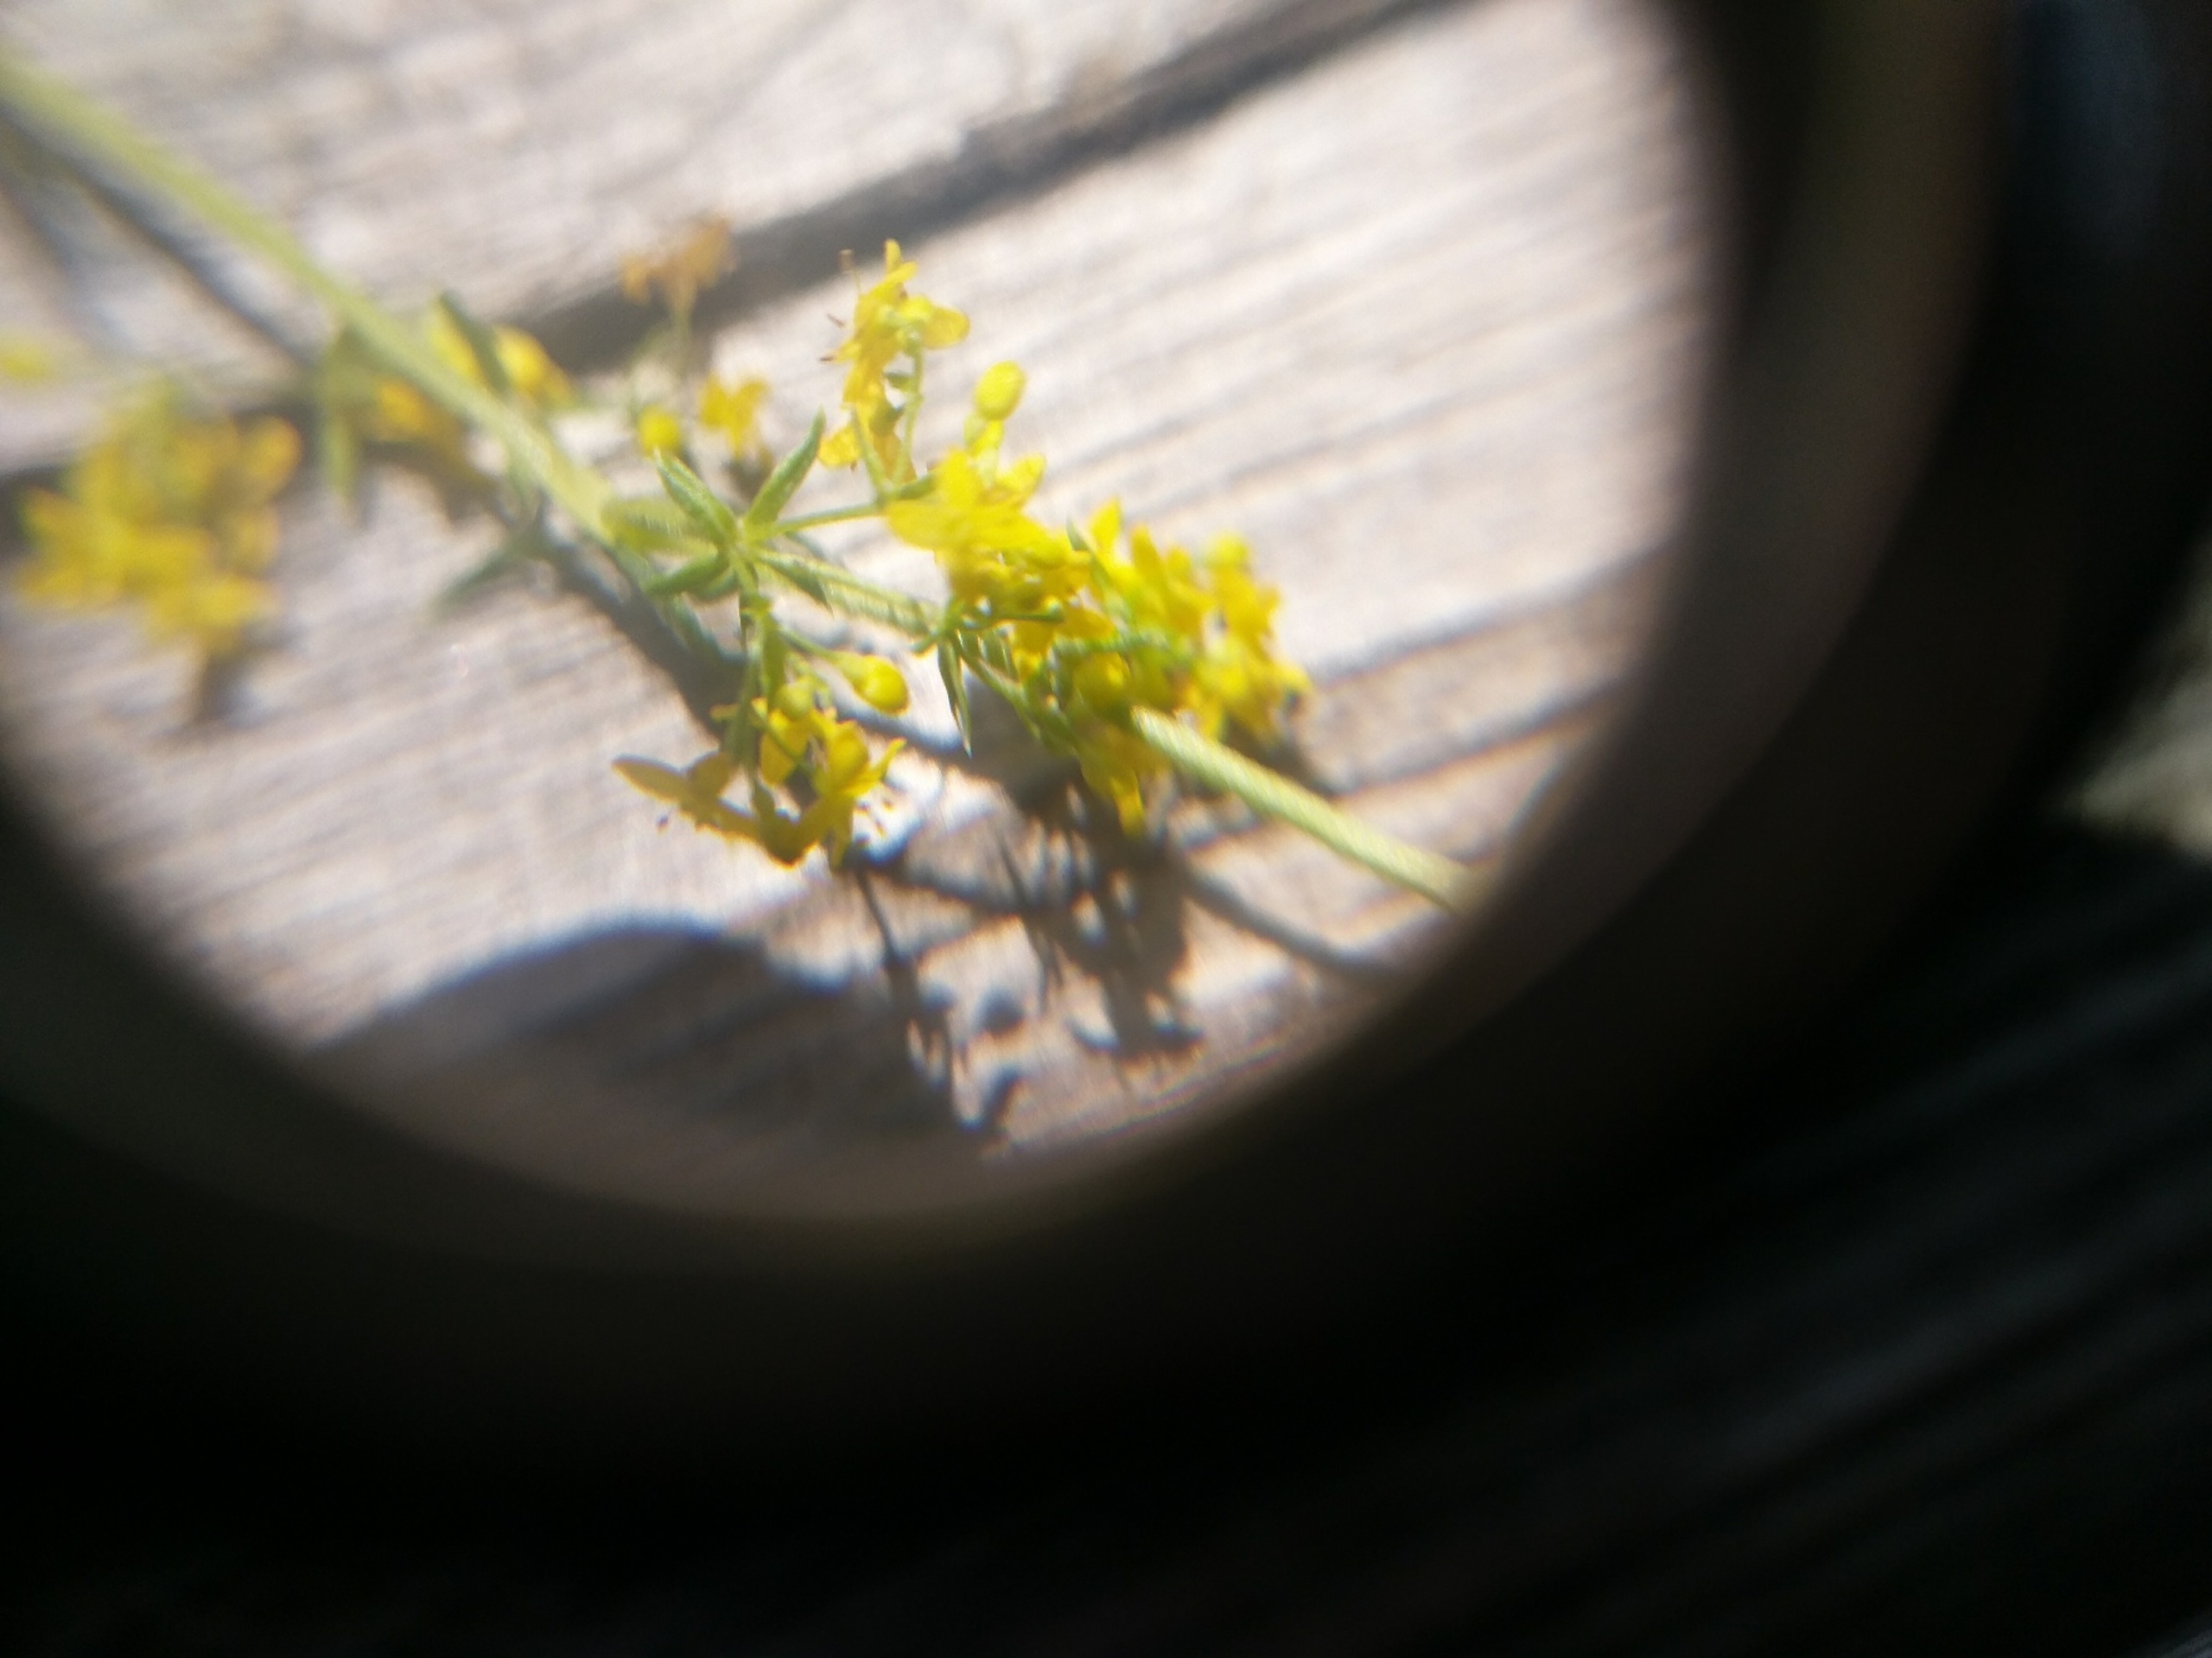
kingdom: Plantae
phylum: Tracheophyta
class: Magnoliopsida
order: Gentianales
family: Rubiaceae
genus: Galium
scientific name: Galium verum
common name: Gul snerre
